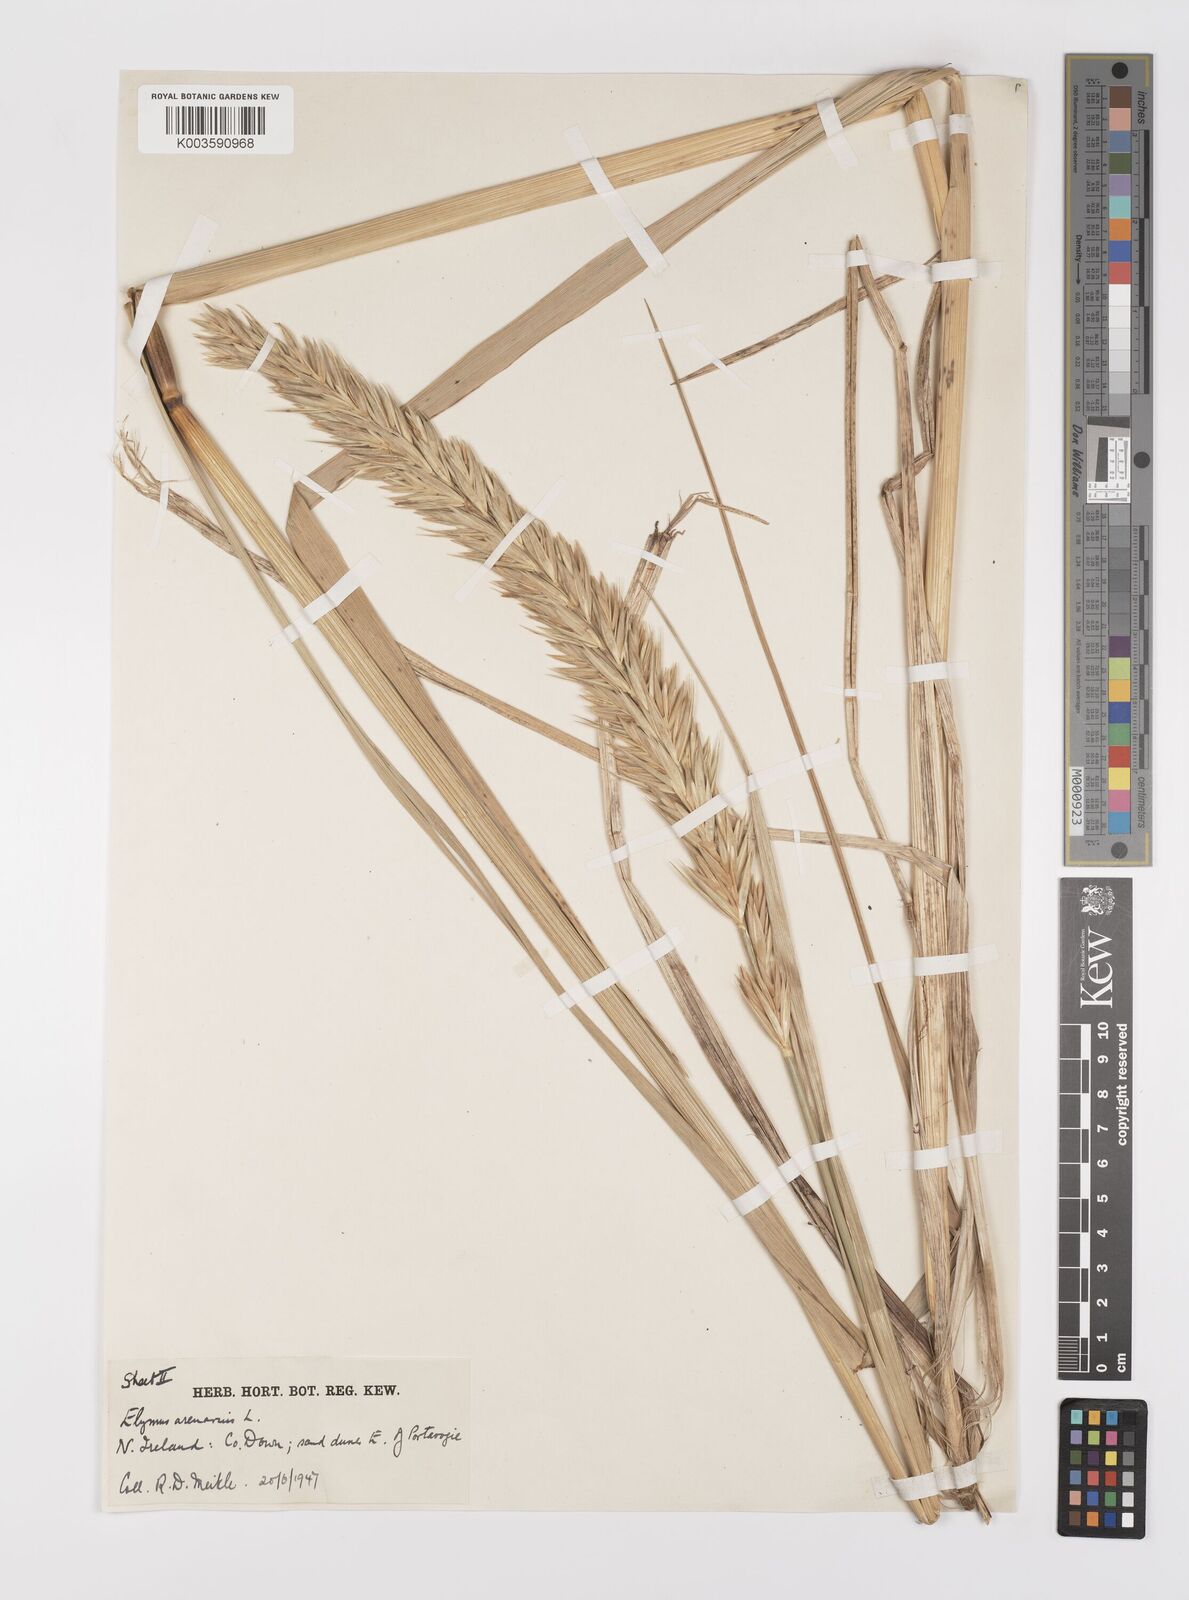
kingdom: Plantae
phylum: Tracheophyta
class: Liliopsida
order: Poales
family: Poaceae
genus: Leymus
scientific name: Leymus arenarius
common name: Lyme-grass
